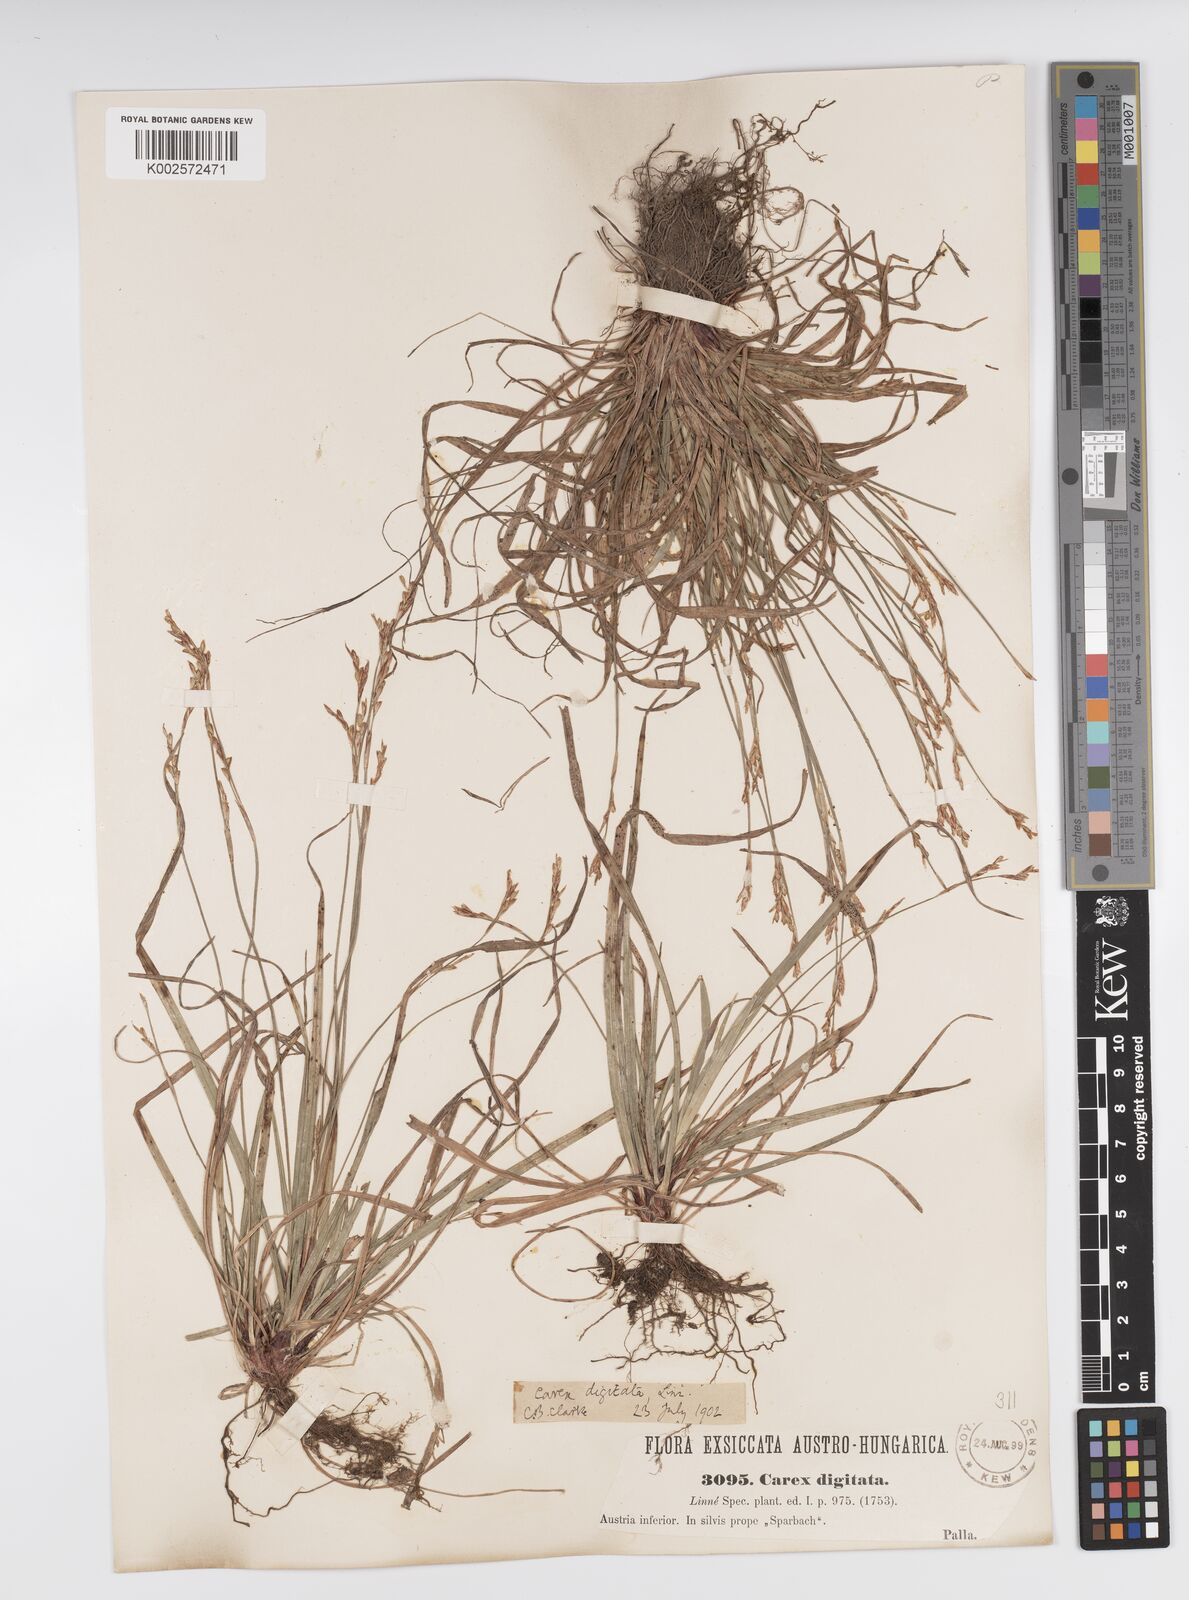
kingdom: Plantae
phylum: Tracheophyta
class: Liliopsida
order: Poales
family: Cyperaceae
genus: Carex
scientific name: Carex digitata
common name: Fingered sedge
